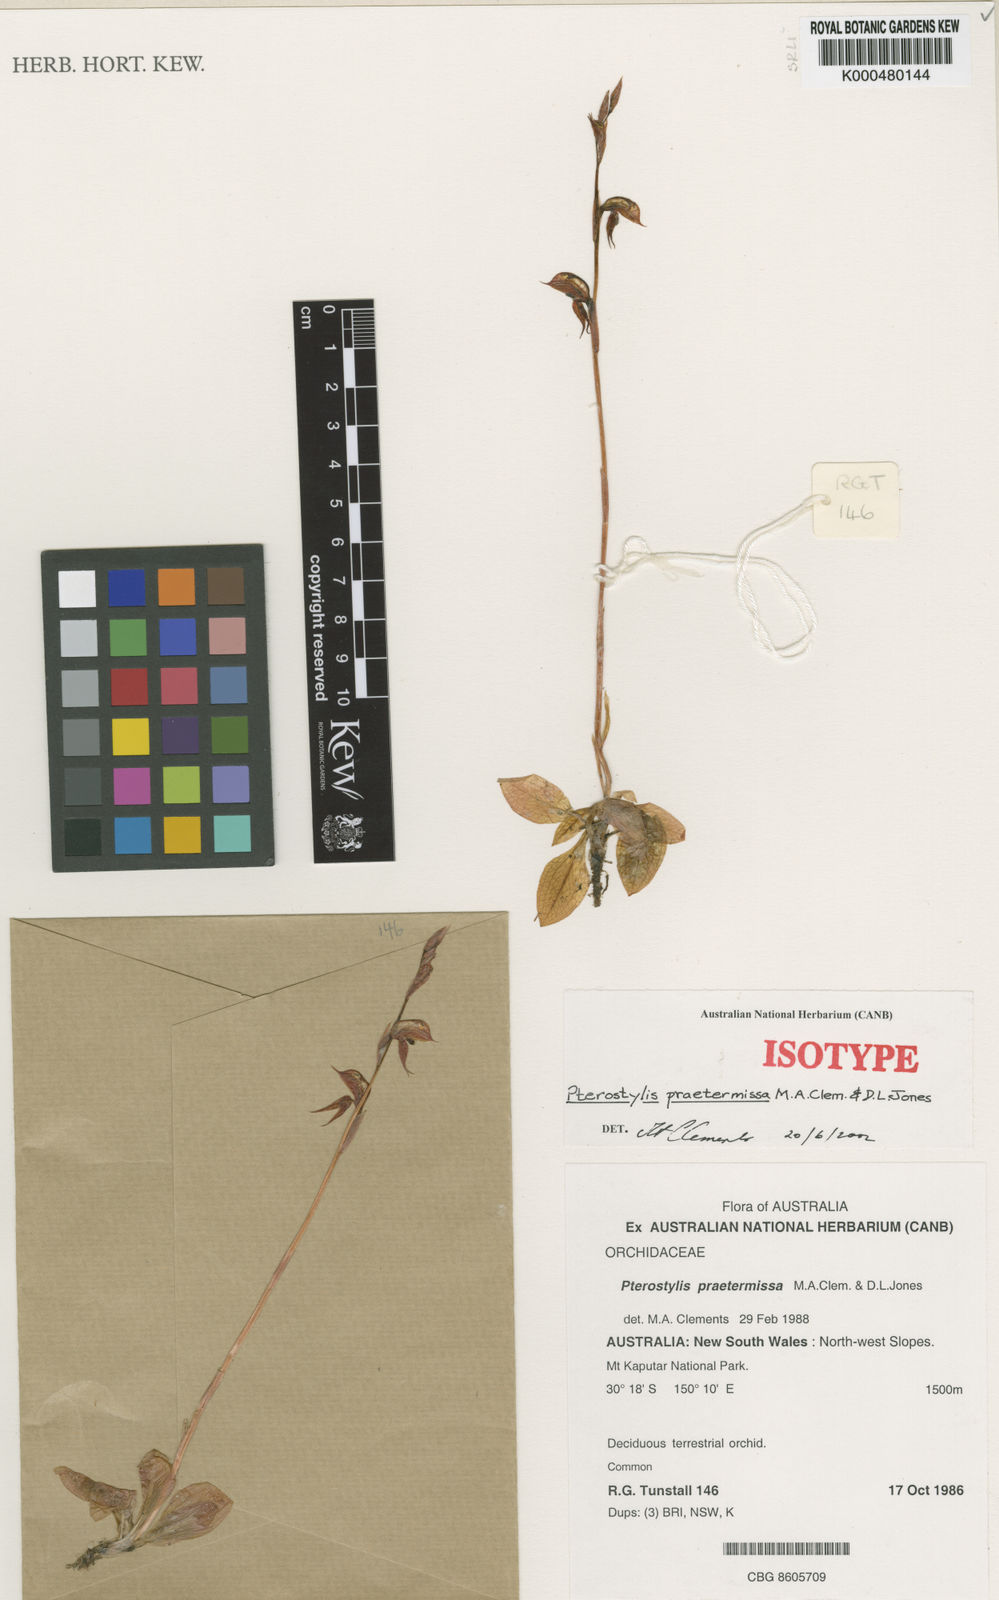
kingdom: Plantae
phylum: Tracheophyta
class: Liliopsida
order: Asparagales
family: Orchidaceae
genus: Pterostylis
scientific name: Pterostylis praetermissa
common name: Mount kaputar rusty hood
